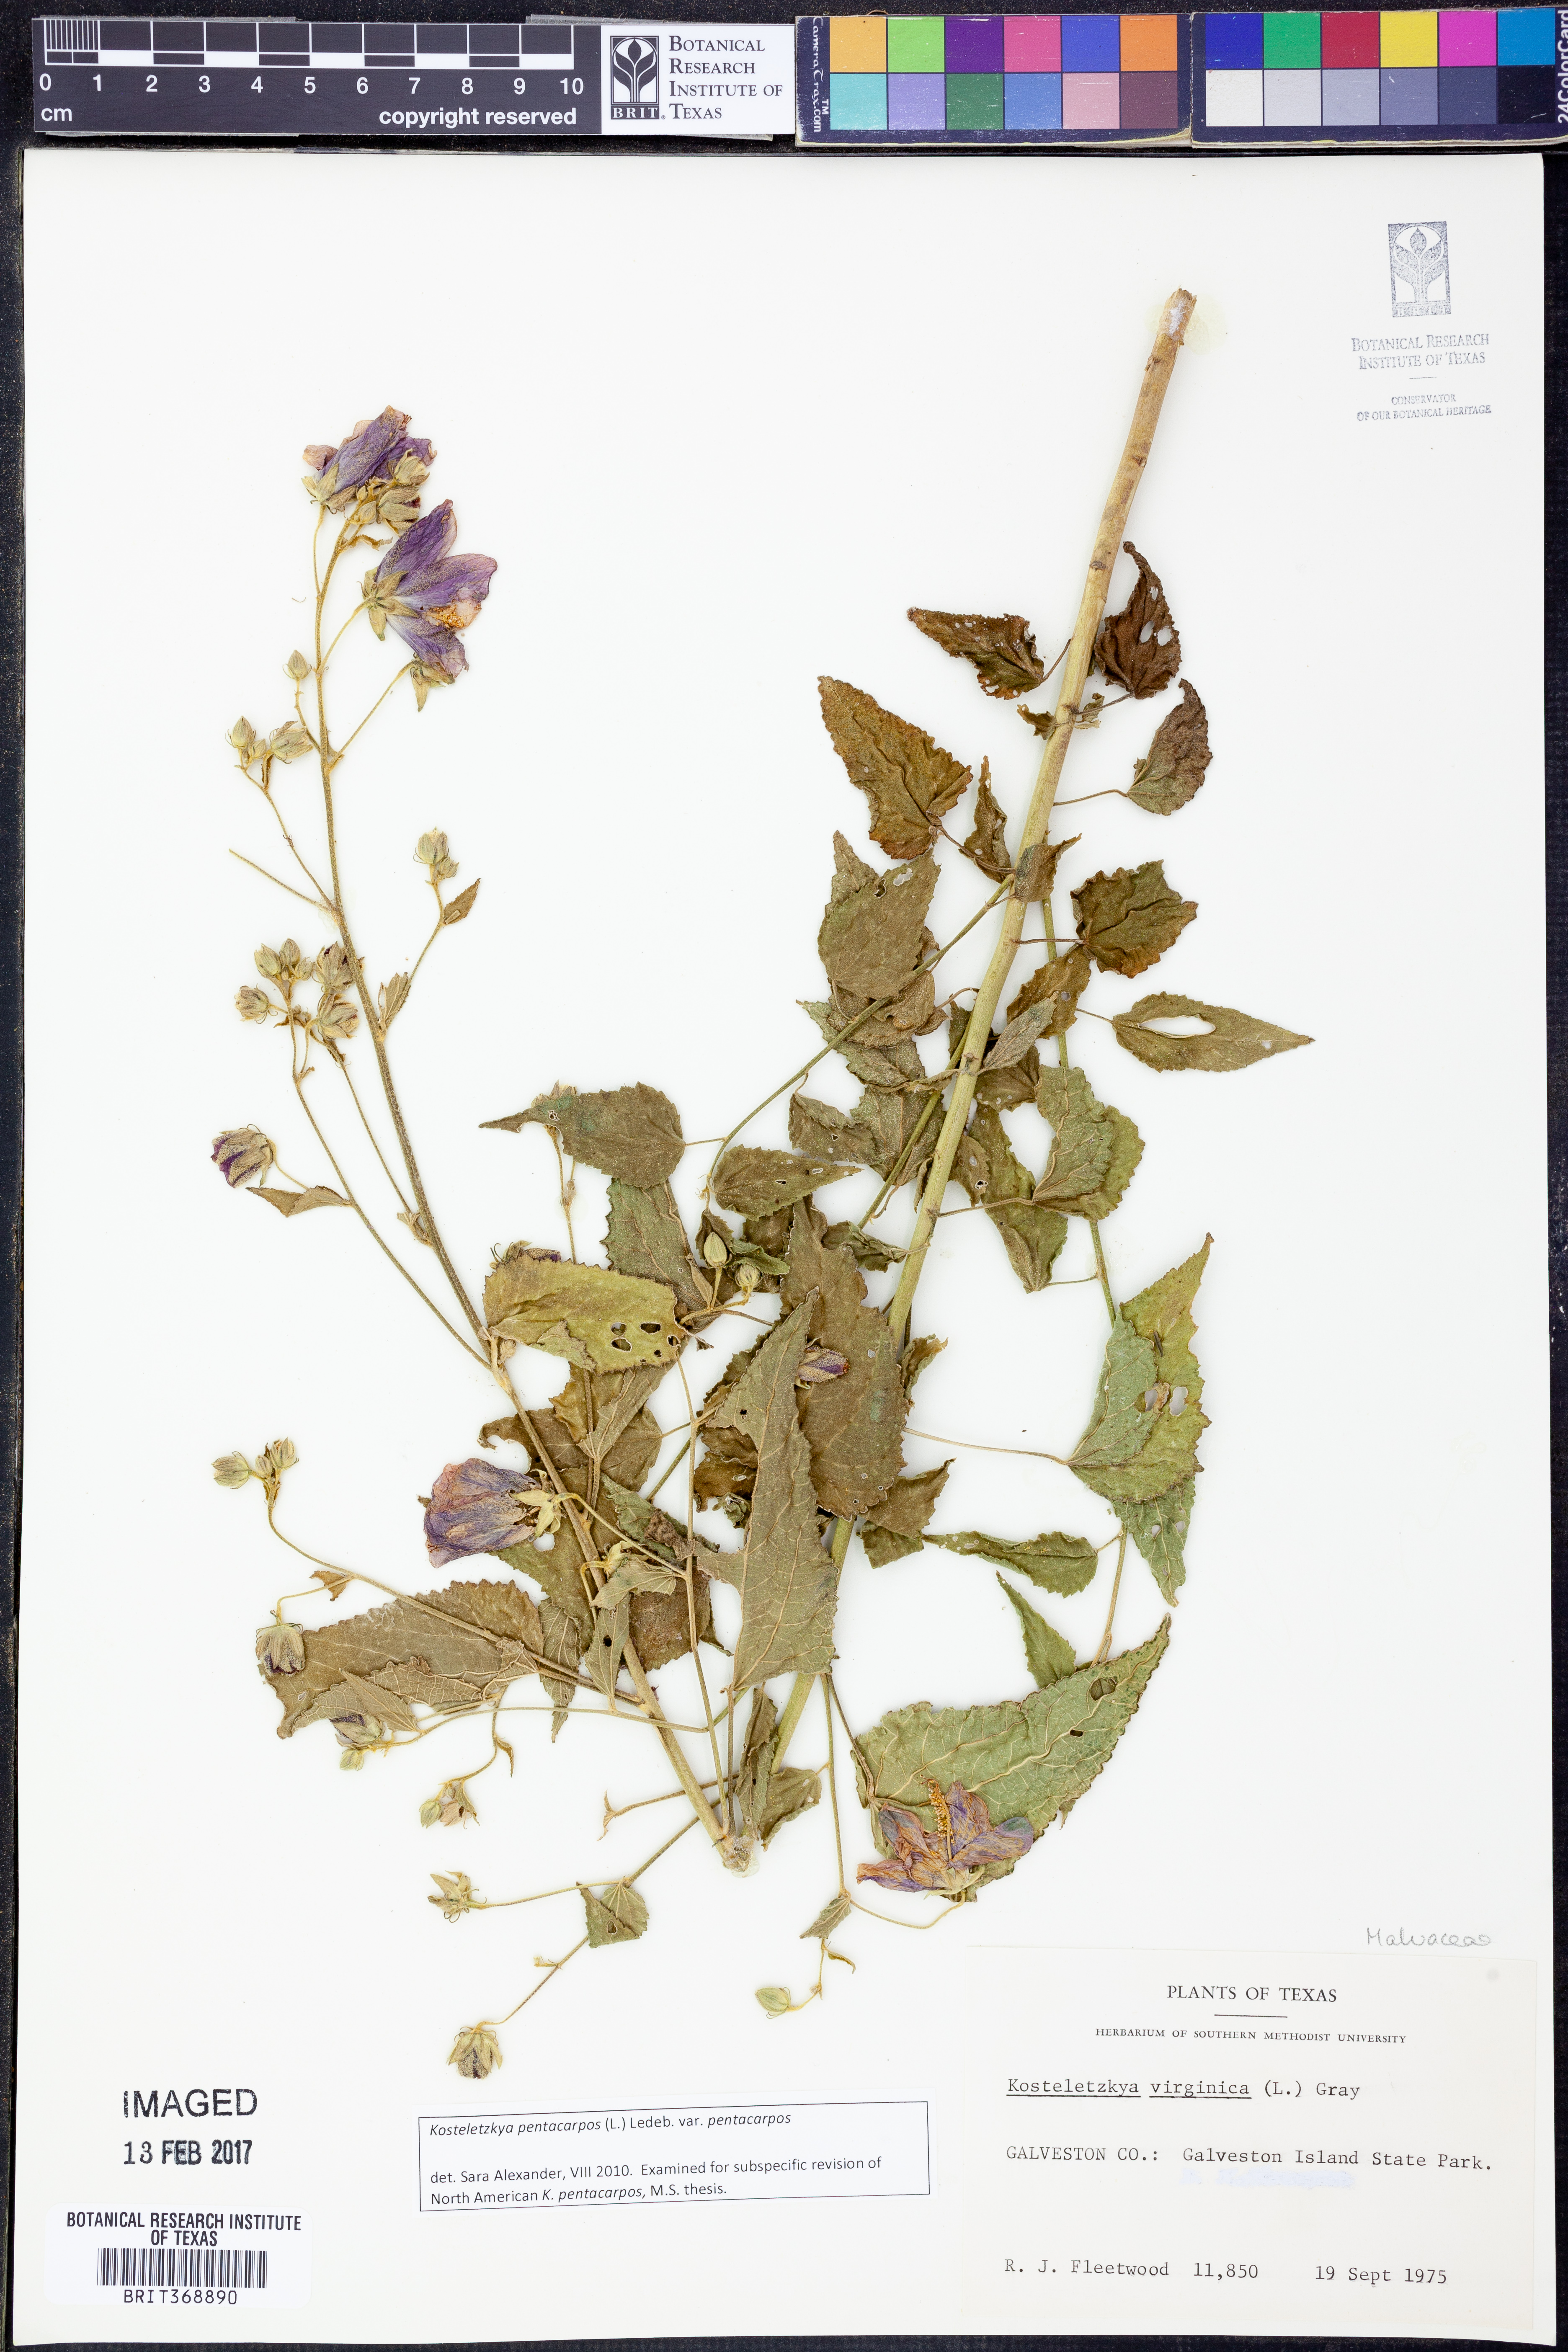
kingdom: Plantae
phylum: Tracheophyta
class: Magnoliopsida
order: Malvales
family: Malvaceae
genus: Kosteletzkya
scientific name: Kosteletzkya pentacarpos
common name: Virginia saltmarsh mallow
